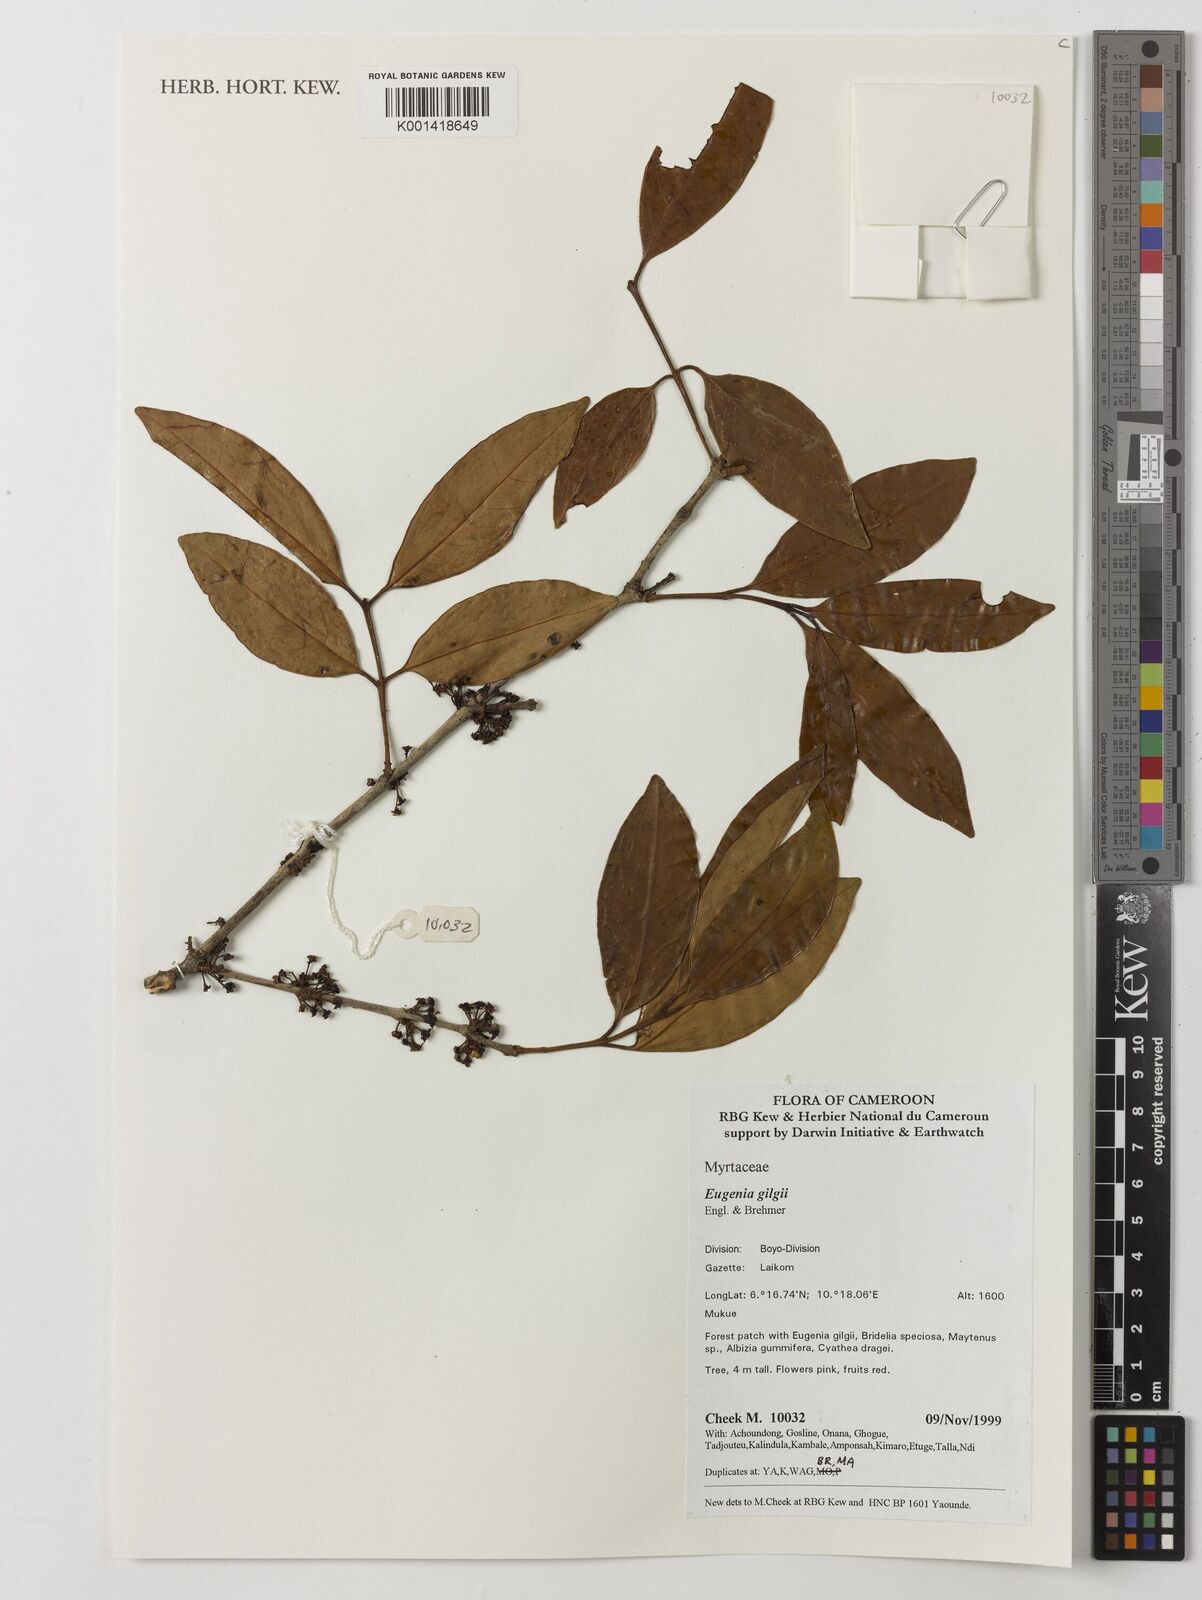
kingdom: Plantae
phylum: Tracheophyta
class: Magnoliopsida
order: Myrtales
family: Myrtaceae
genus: Eugenia
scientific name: Eugenia gilgii
